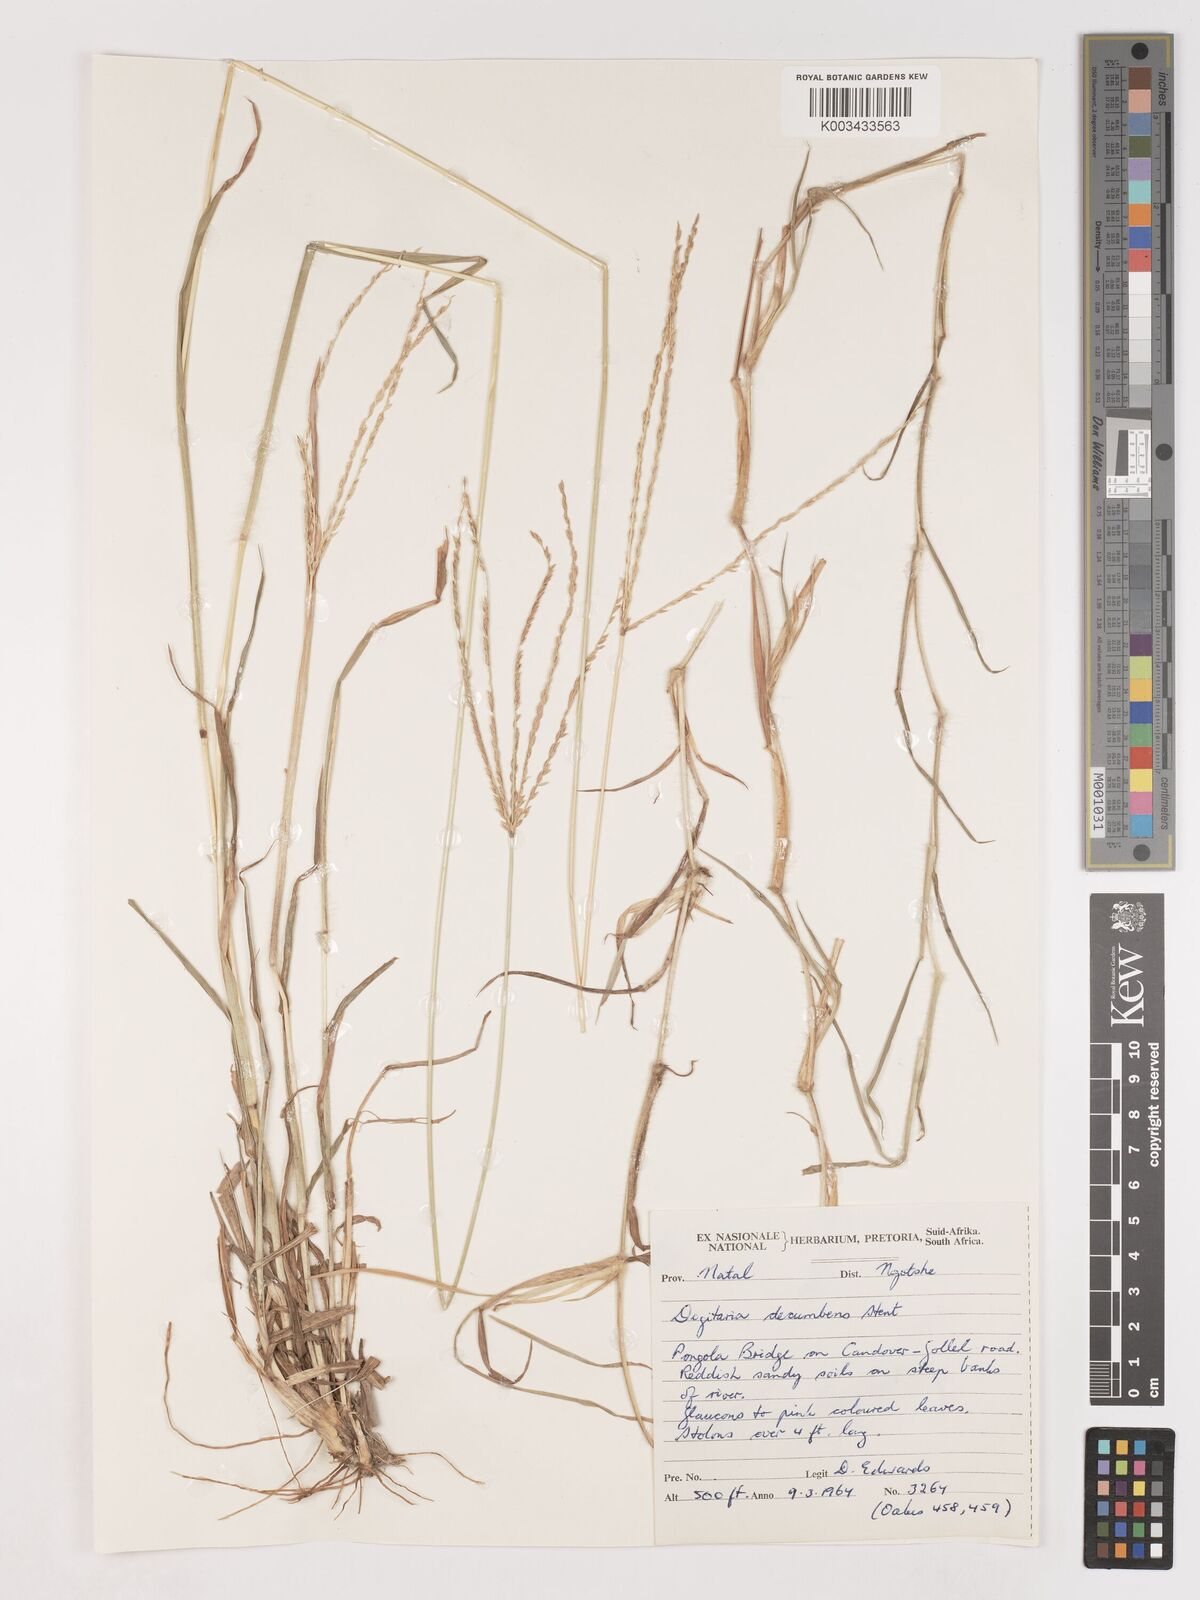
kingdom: Plantae
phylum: Tracheophyta
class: Liliopsida
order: Poales
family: Poaceae
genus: Digitaria
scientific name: Digitaria eriantha
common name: Digitgrass
